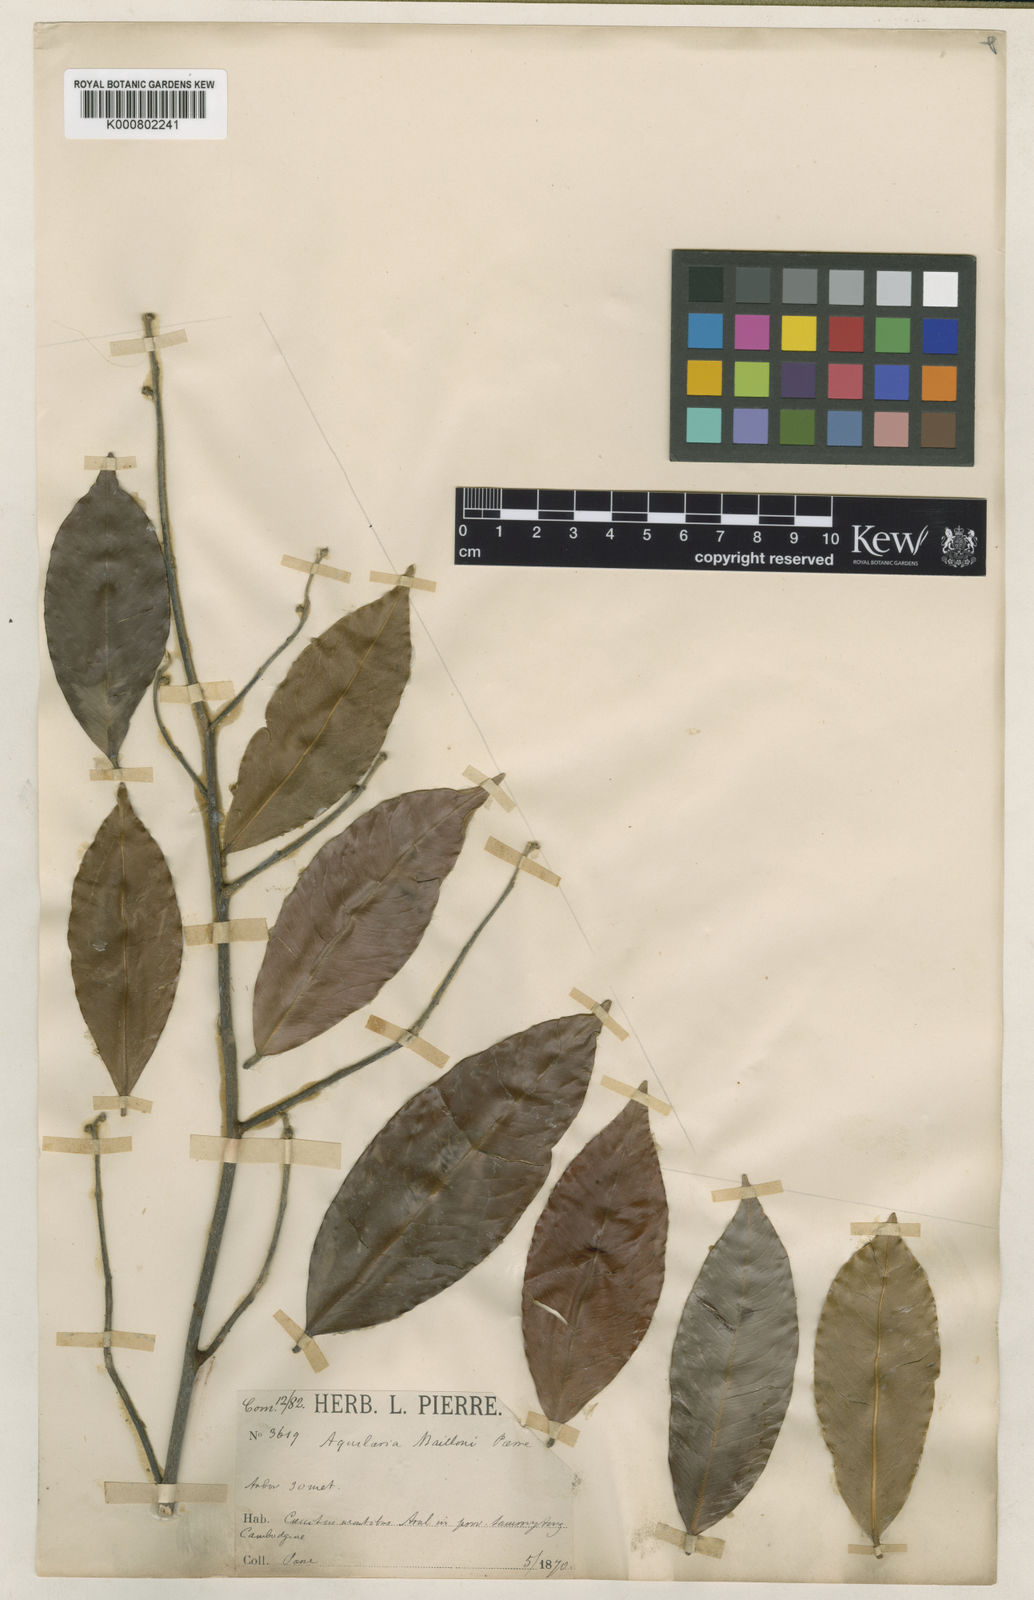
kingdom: Plantae
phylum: Tracheophyta
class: Magnoliopsida
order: Malvales
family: Thymelaeaceae
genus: Aquilaria
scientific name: Aquilaria baillonii
